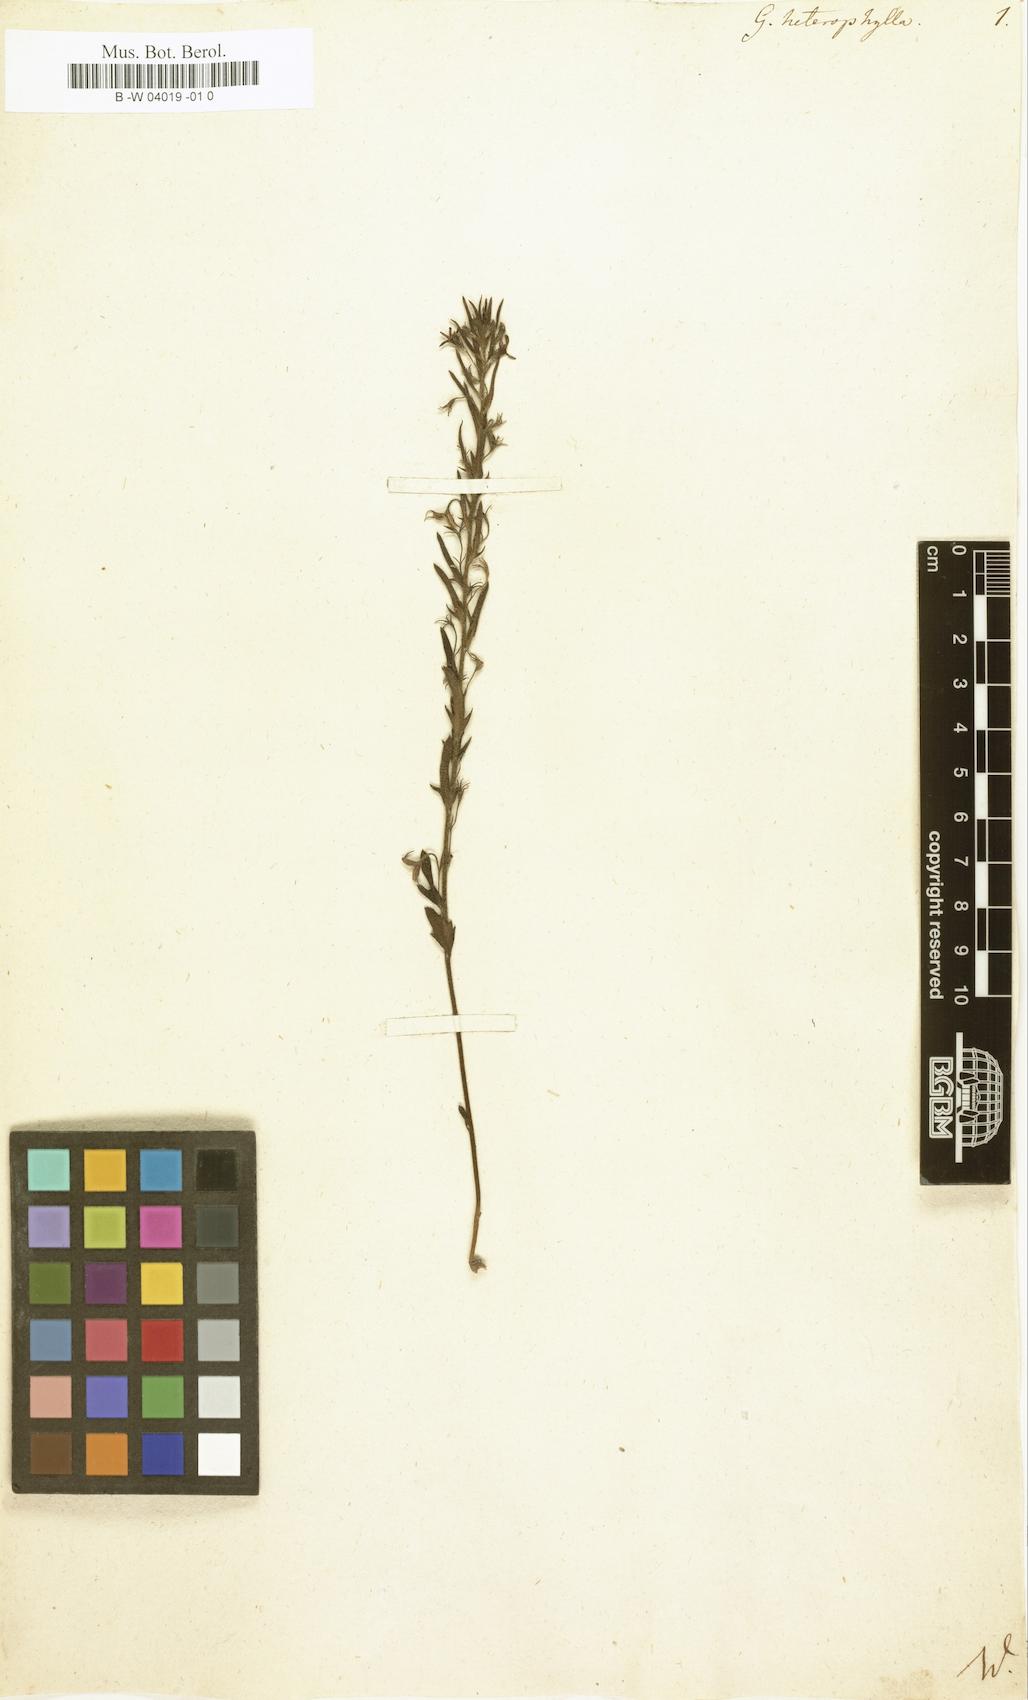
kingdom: Plantae
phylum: Tracheophyta
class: Magnoliopsida
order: Asterales
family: Goodeniaceae
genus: Goodenia
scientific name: Goodenia heterophylla
